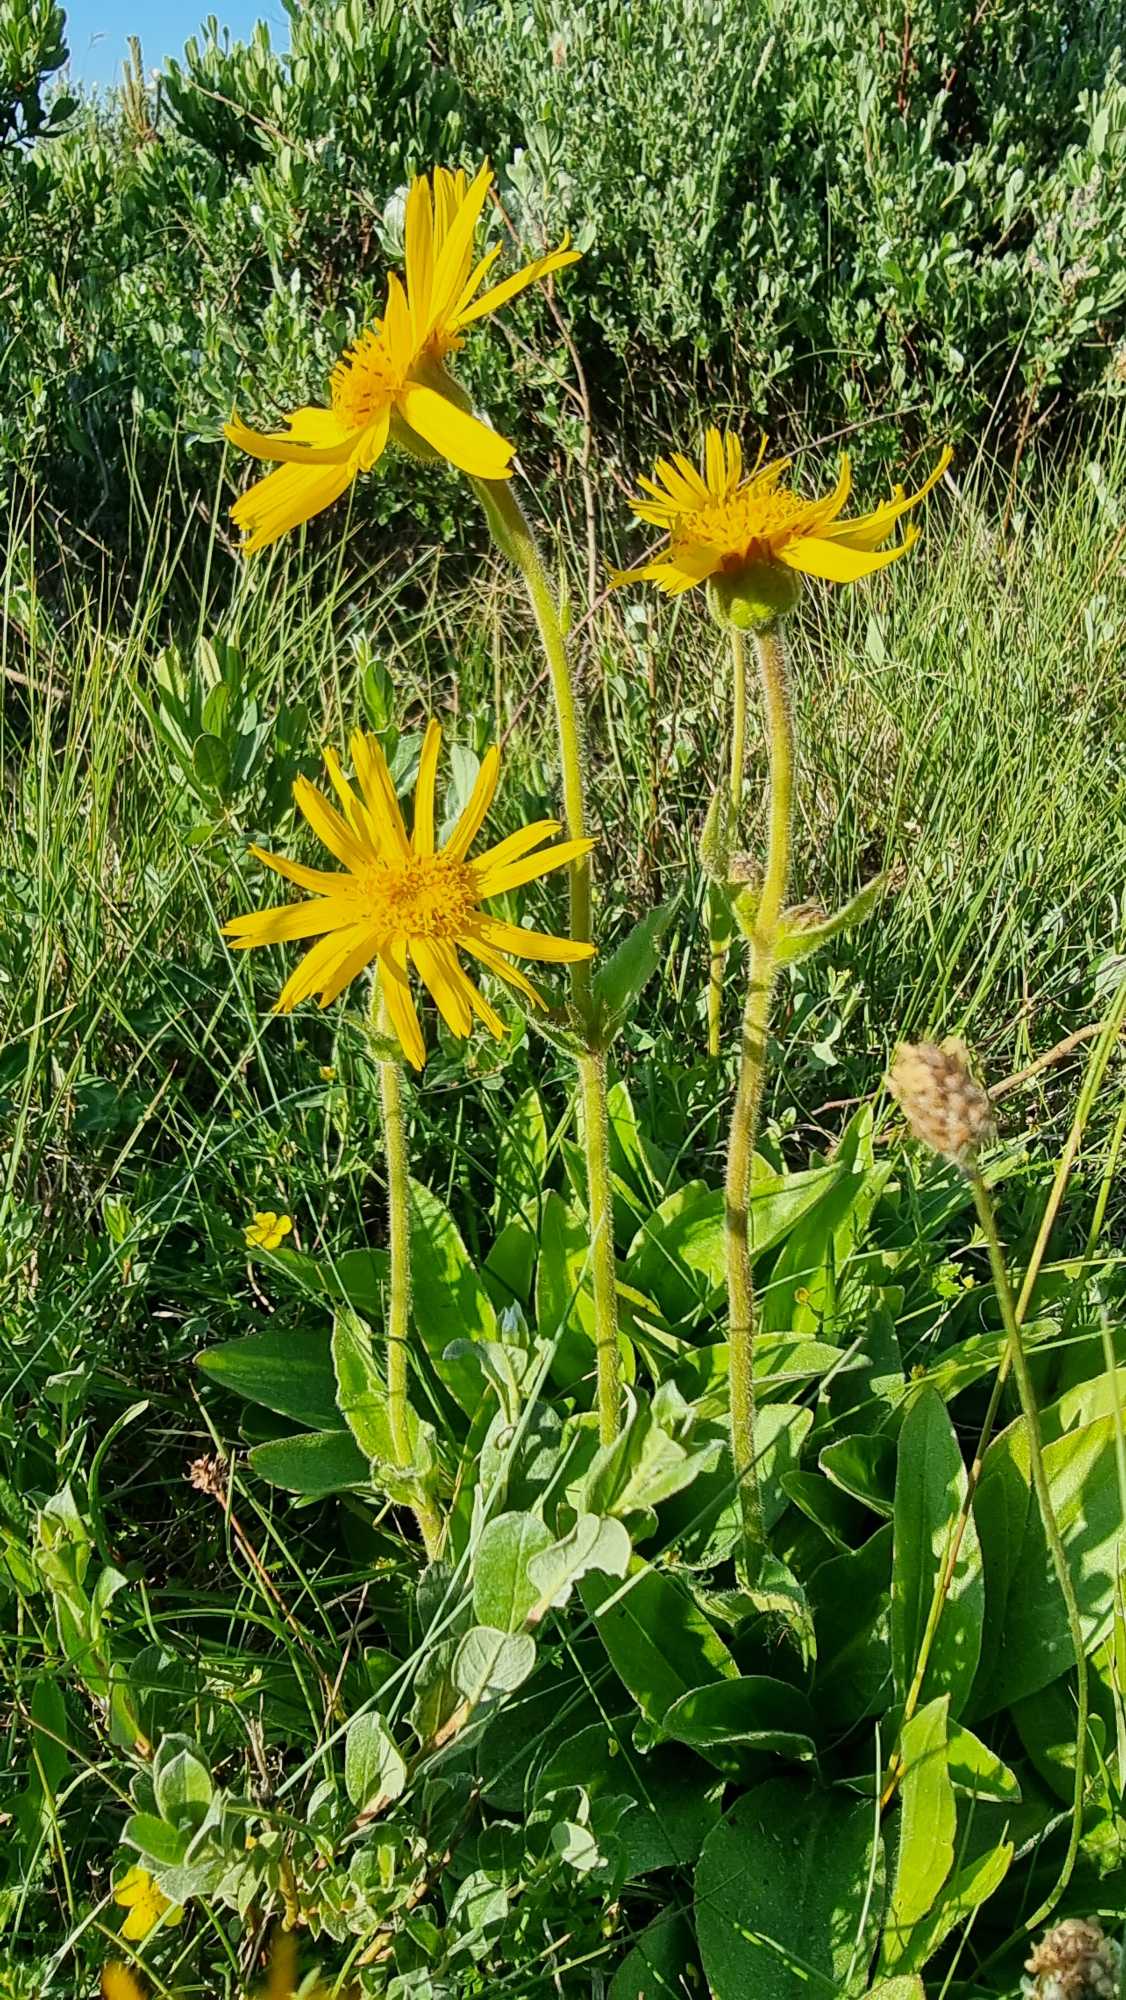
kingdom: Plantae
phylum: Tracheophyta
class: Magnoliopsida
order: Asterales
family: Asteraceae
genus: Arnica
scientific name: Arnica montana
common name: Guldblomme
